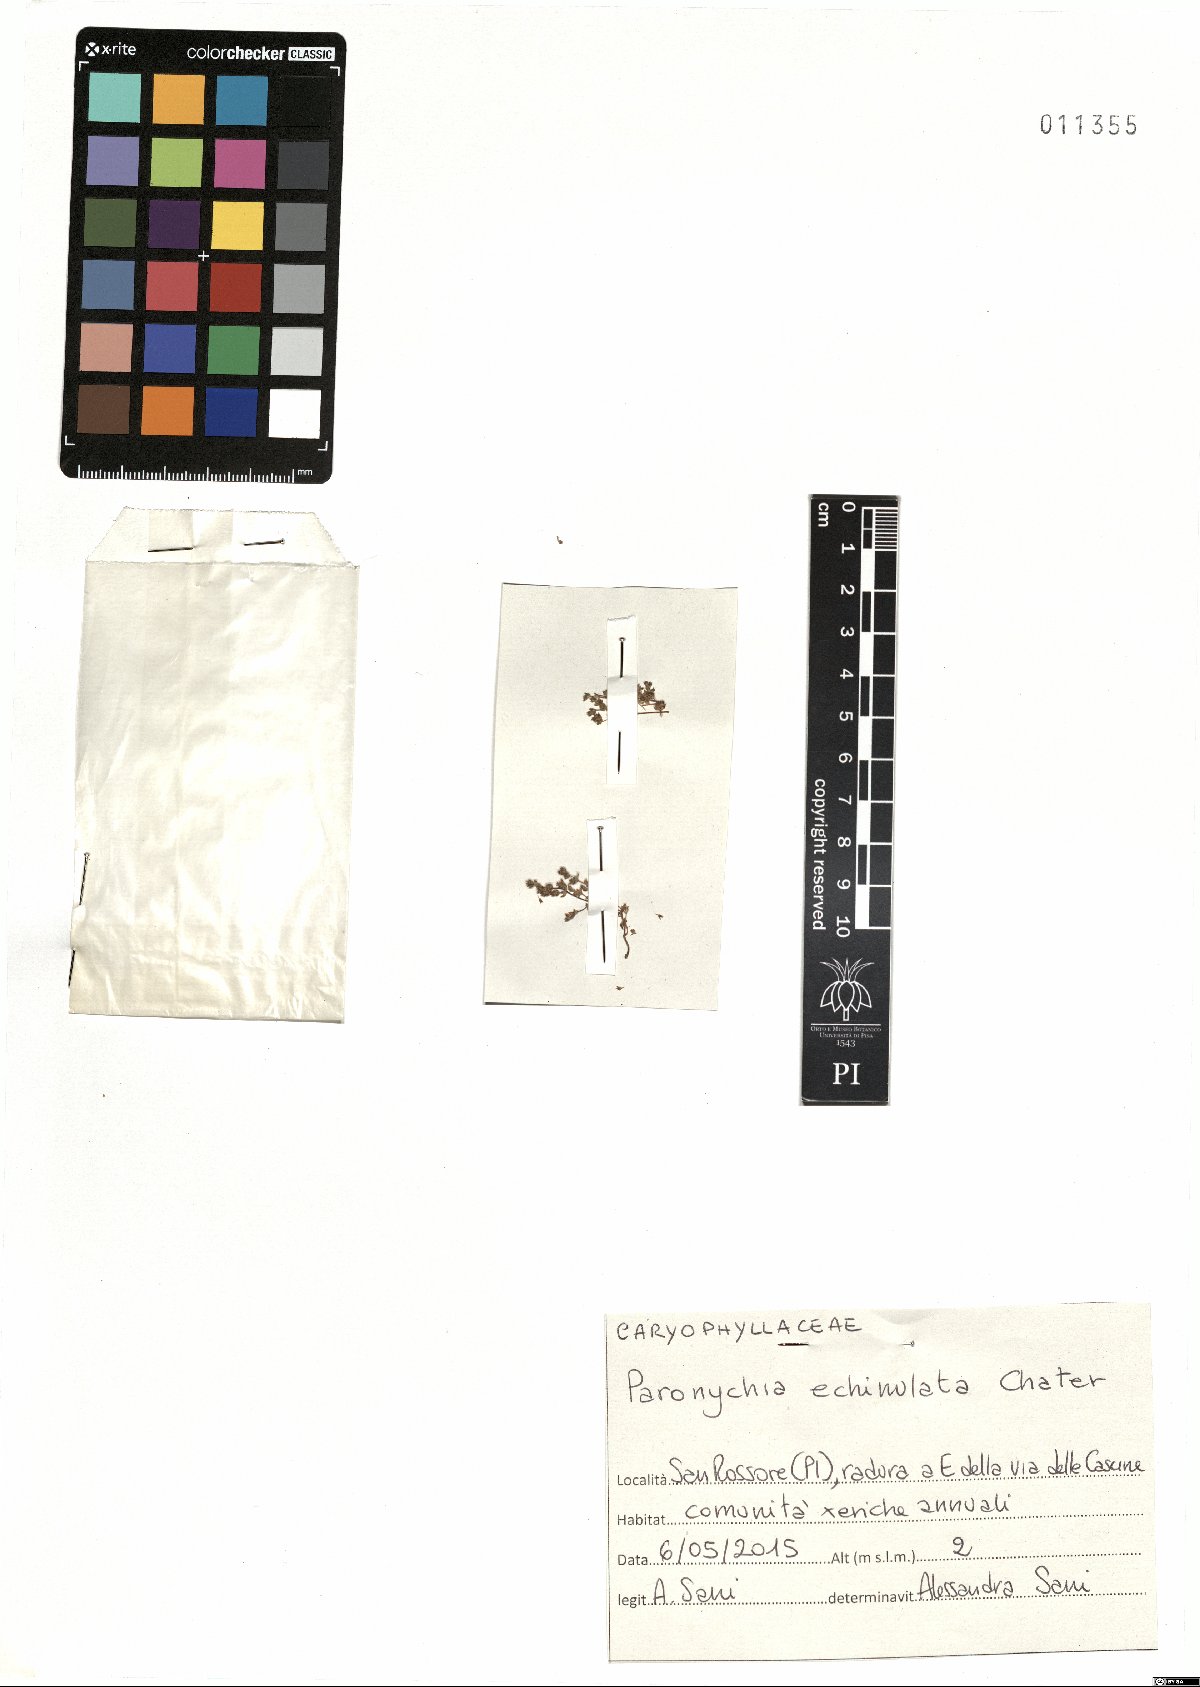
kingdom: Plantae
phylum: Tracheophyta
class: Magnoliopsida
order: Caryophyllales
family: Caryophyllaceae
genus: Paronychia
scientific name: Paronychia echinulata
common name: Eurasian nailwort
